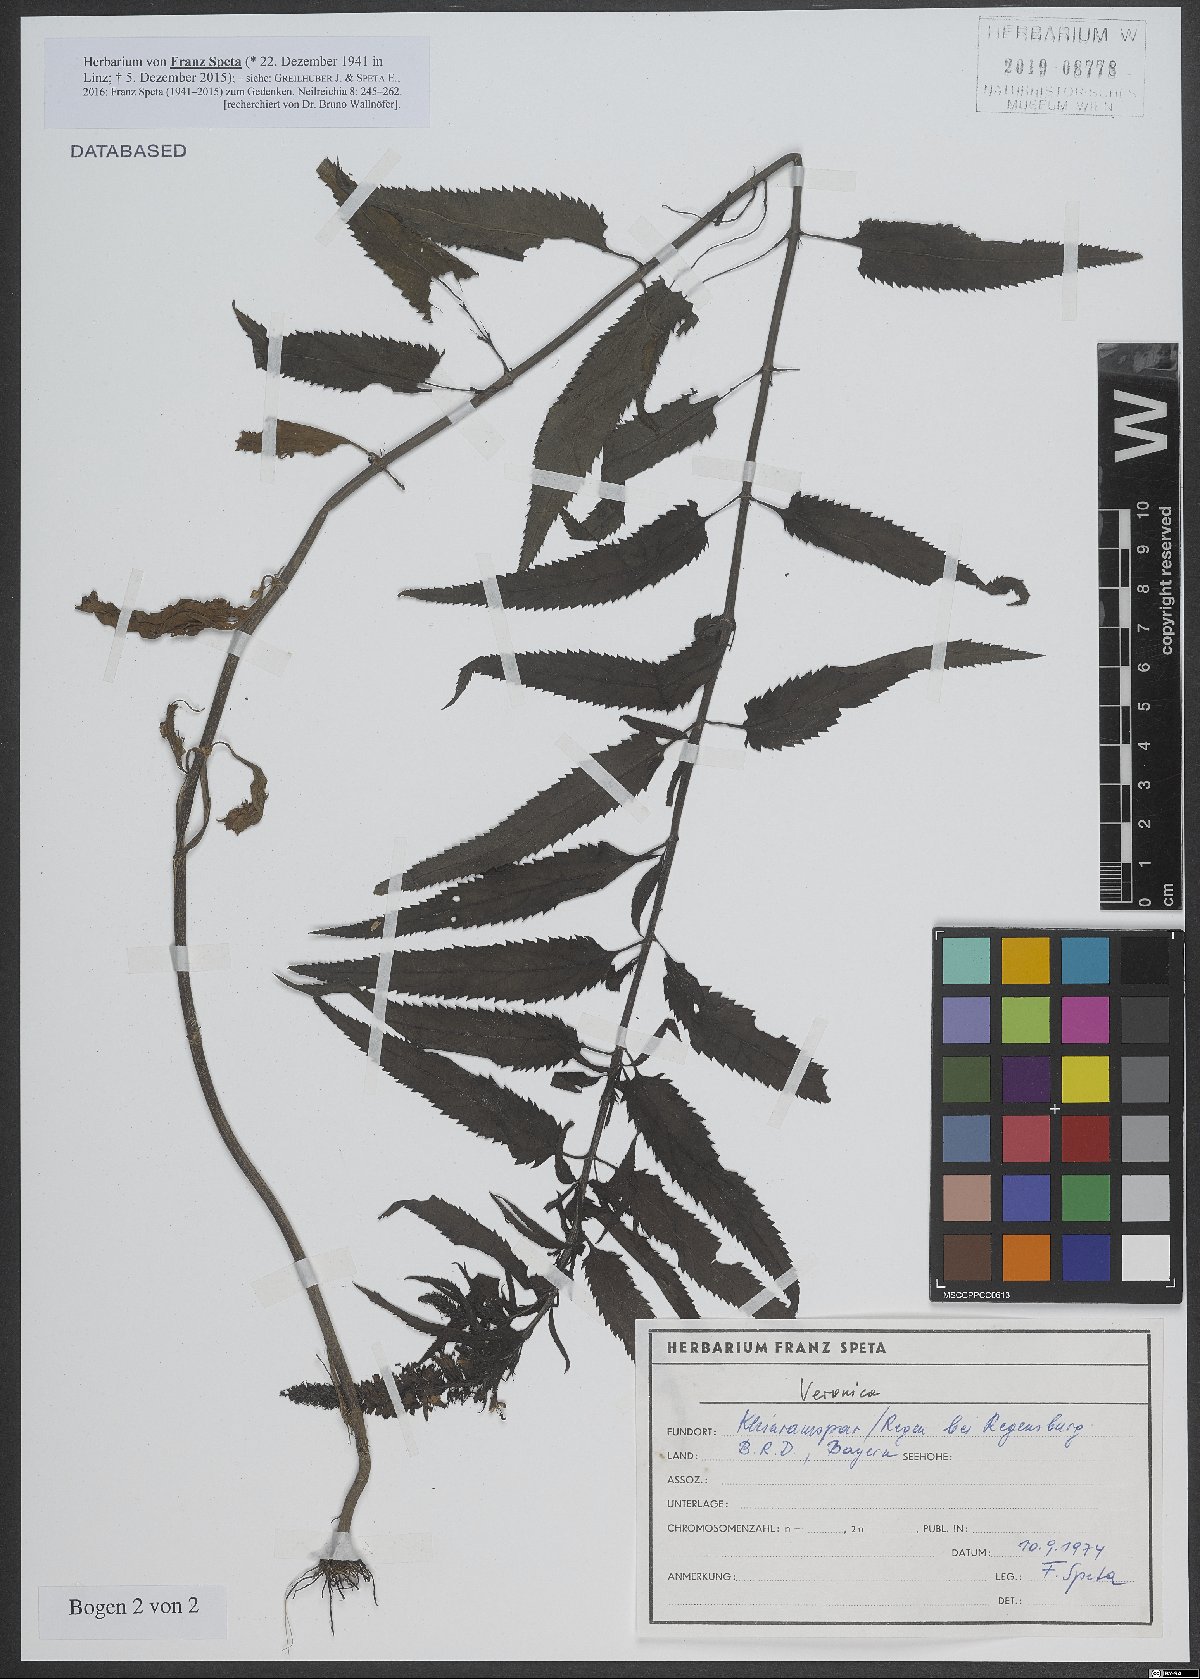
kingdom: Plantae
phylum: Tracheophyta
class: Magnoliopsida
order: Lamiales
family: Plantaginaceae
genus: Veronica
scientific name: Veronica
